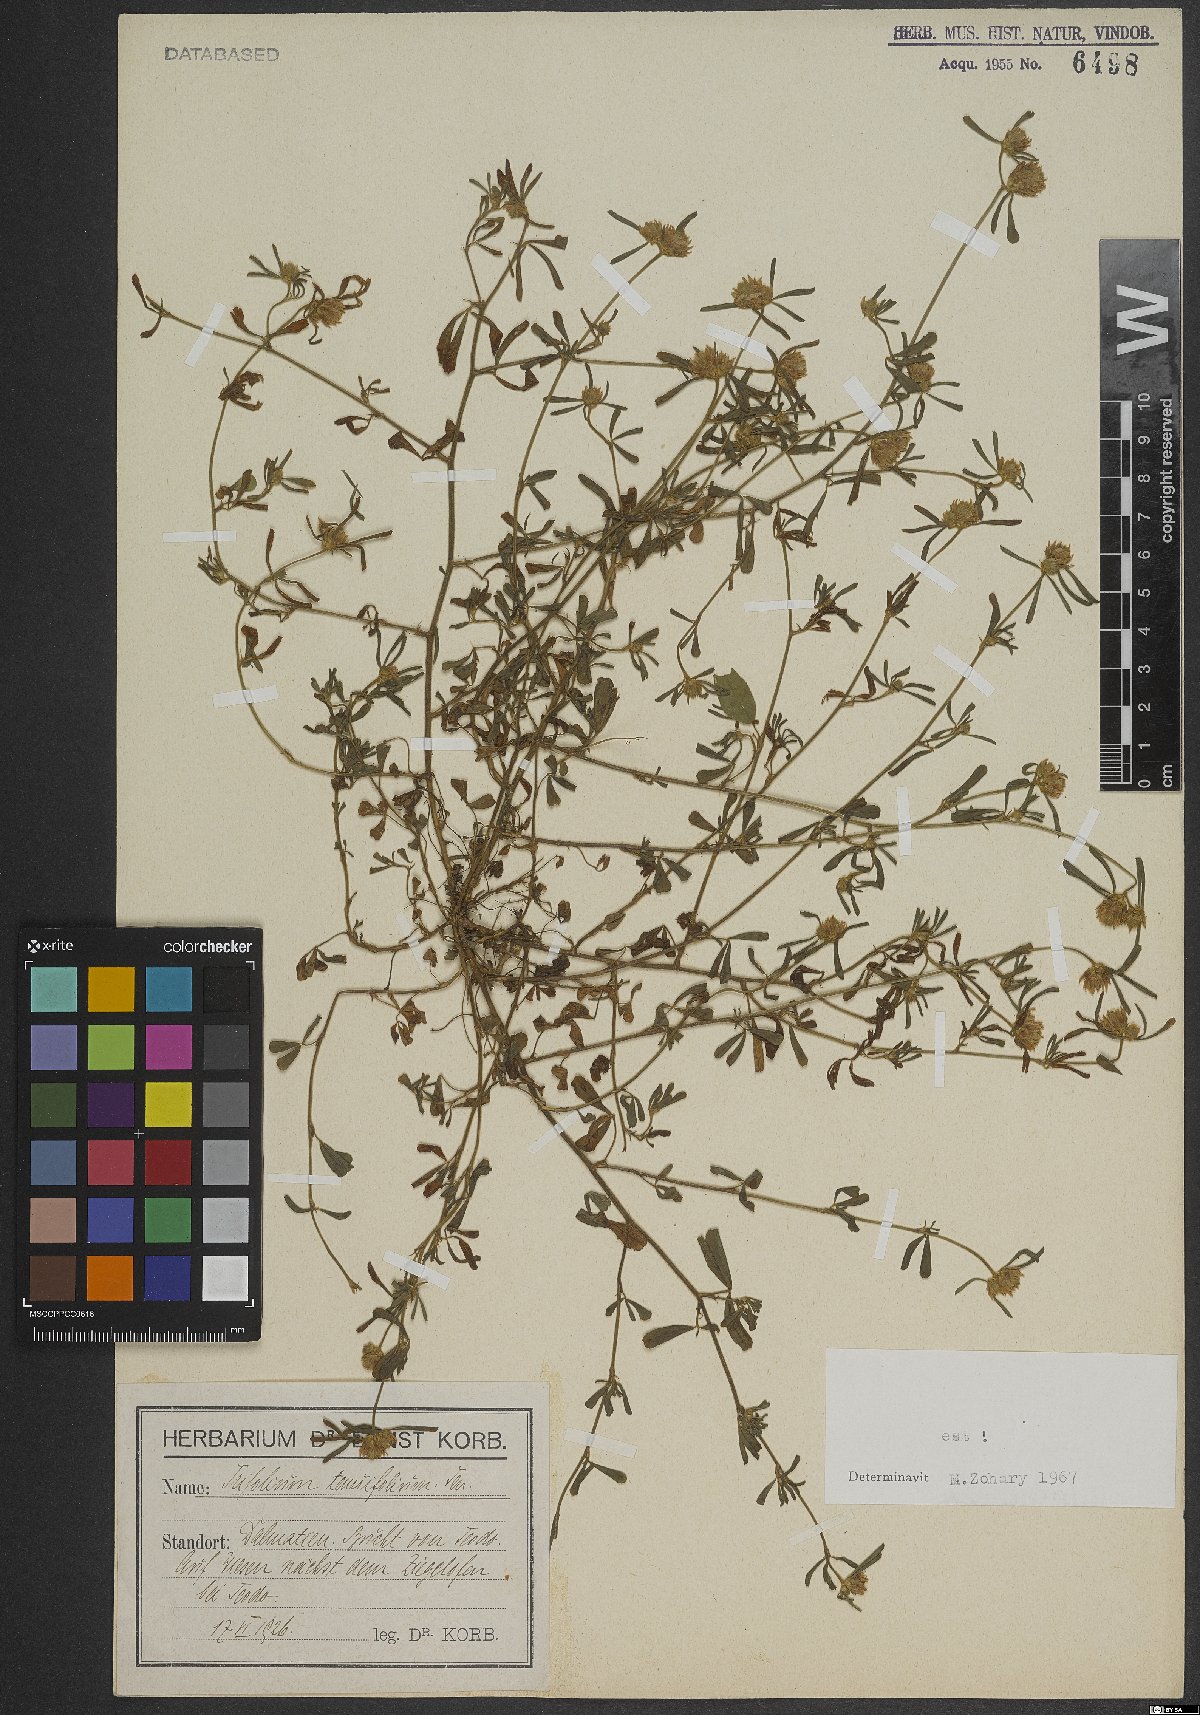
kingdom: Plantae
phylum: Tracheophyta
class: Magnoliopsida
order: Fabales
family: Fabaceae
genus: Trifolium
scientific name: Trifolium tenuifolium
